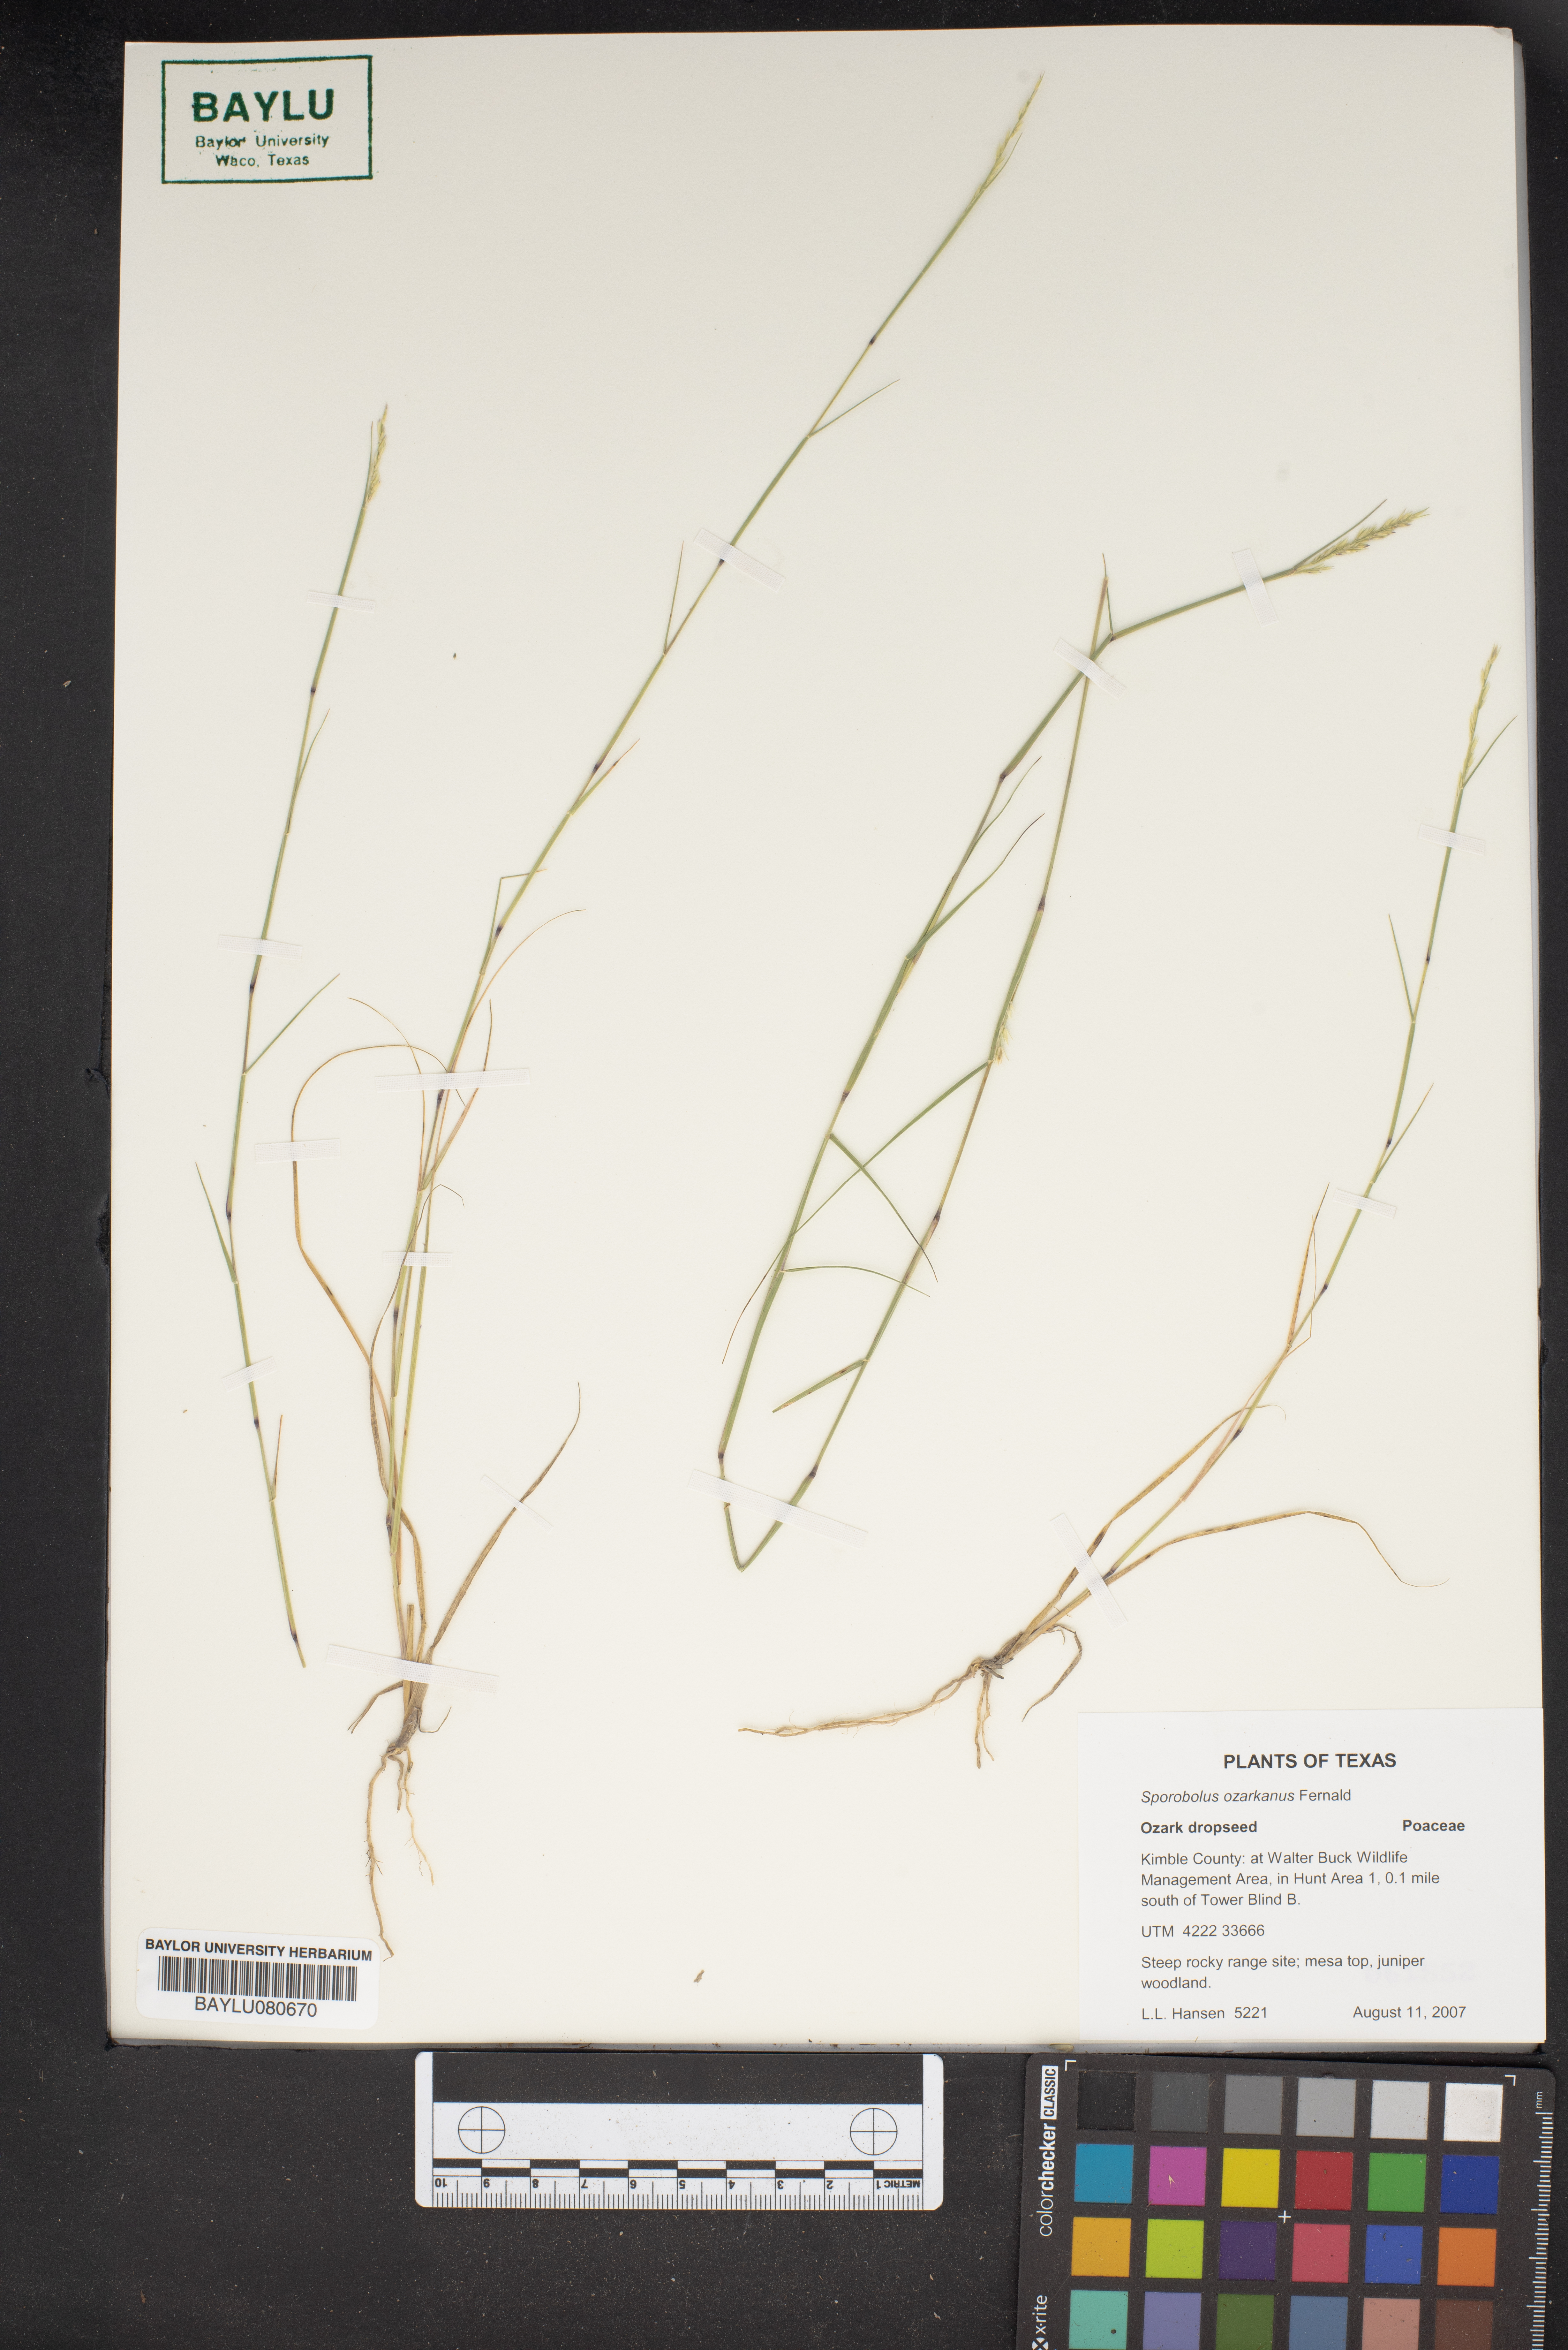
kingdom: Plantae
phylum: Tracheophyta
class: Liliopsida
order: Poales
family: Poaceae
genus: Sporobolus
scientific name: Sporobolus neglectus
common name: Annual dropseed
